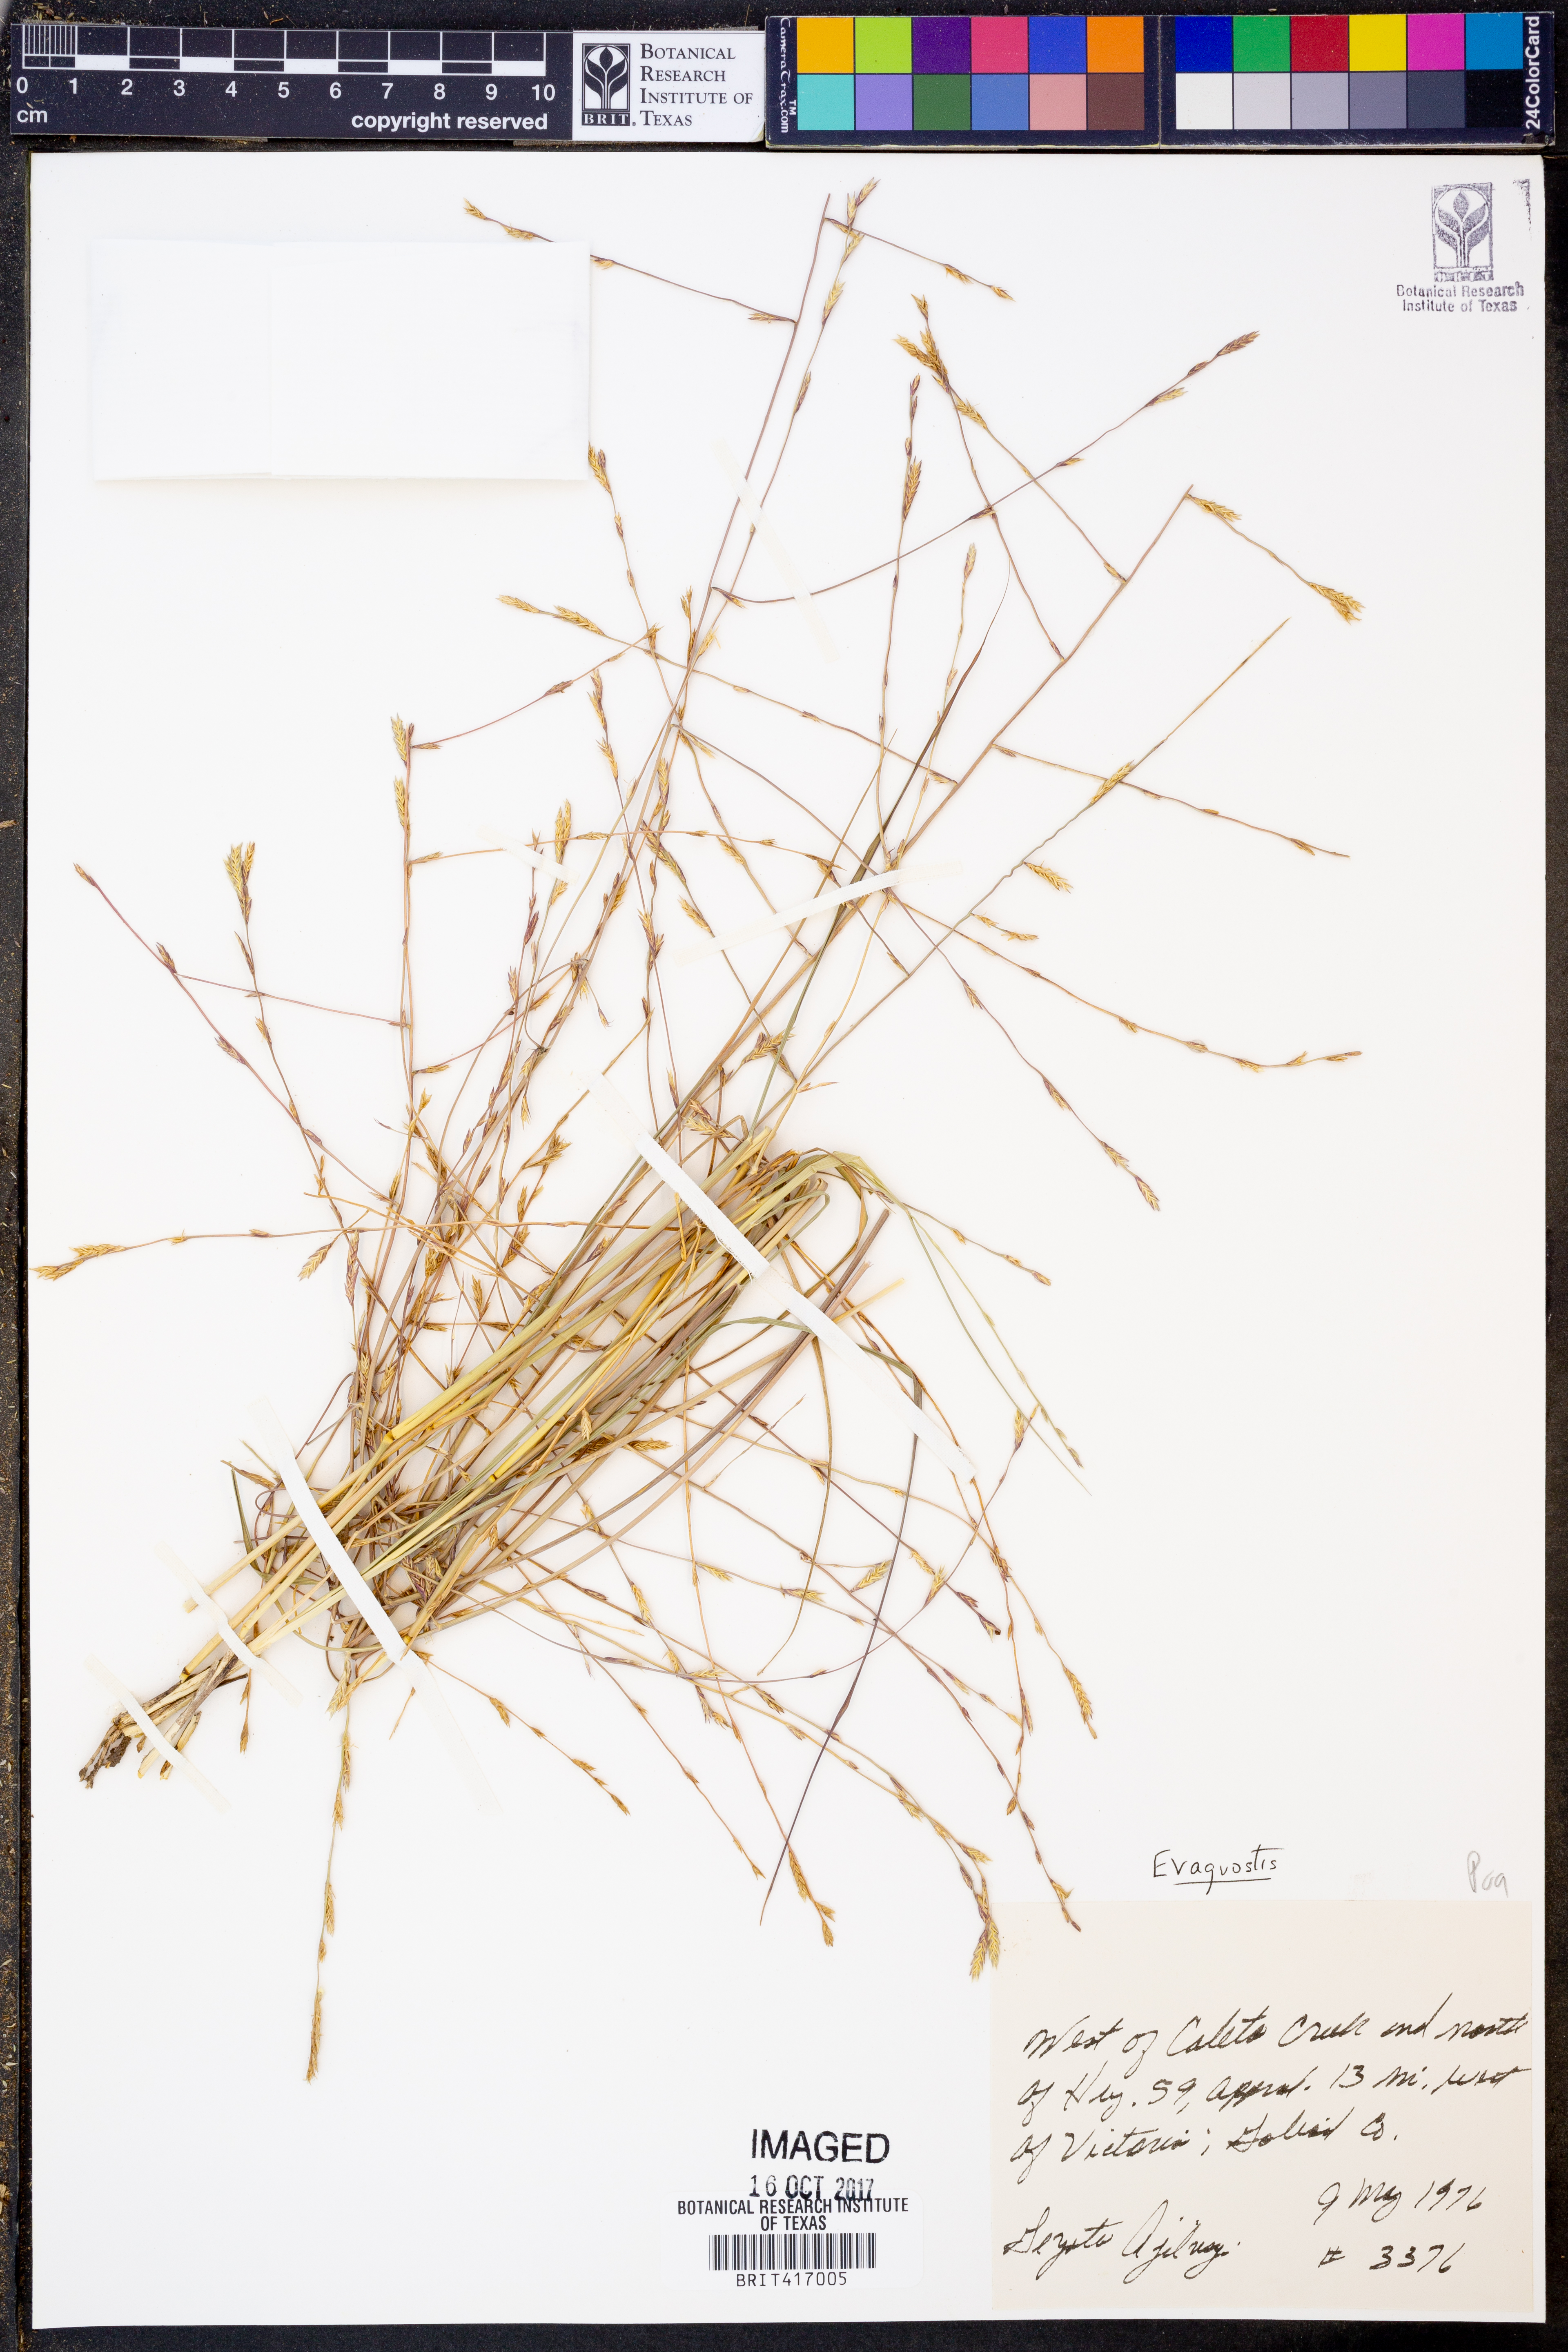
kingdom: Plantae
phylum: Tracheophyta
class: Liliopsida
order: Poales
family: Poaceae
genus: Eragrostis
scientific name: Eragrostis
